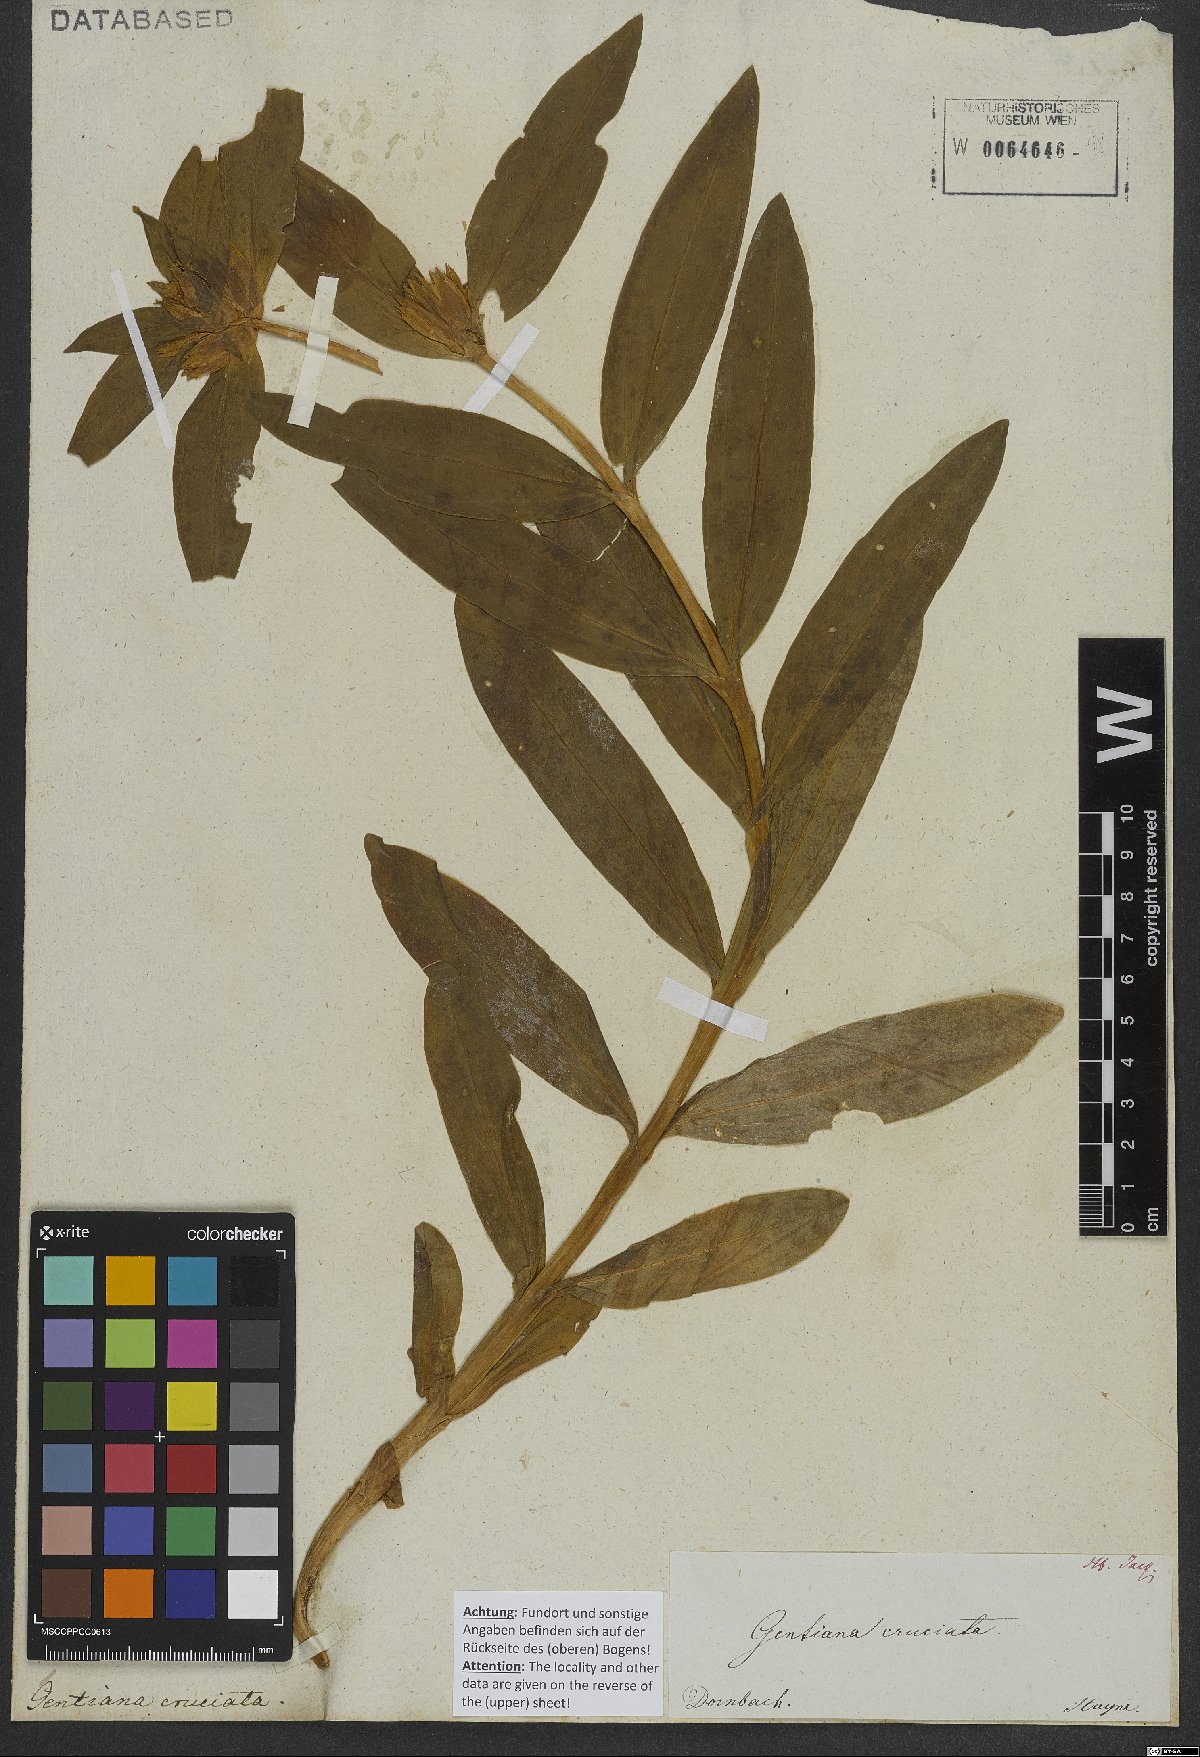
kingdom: Plantae
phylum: Tracheophyta
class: Magnoliopsida
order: Gentianales
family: Gentianaceae
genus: Gentiana
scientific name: Gentiana cruciata
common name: Cross gentian
